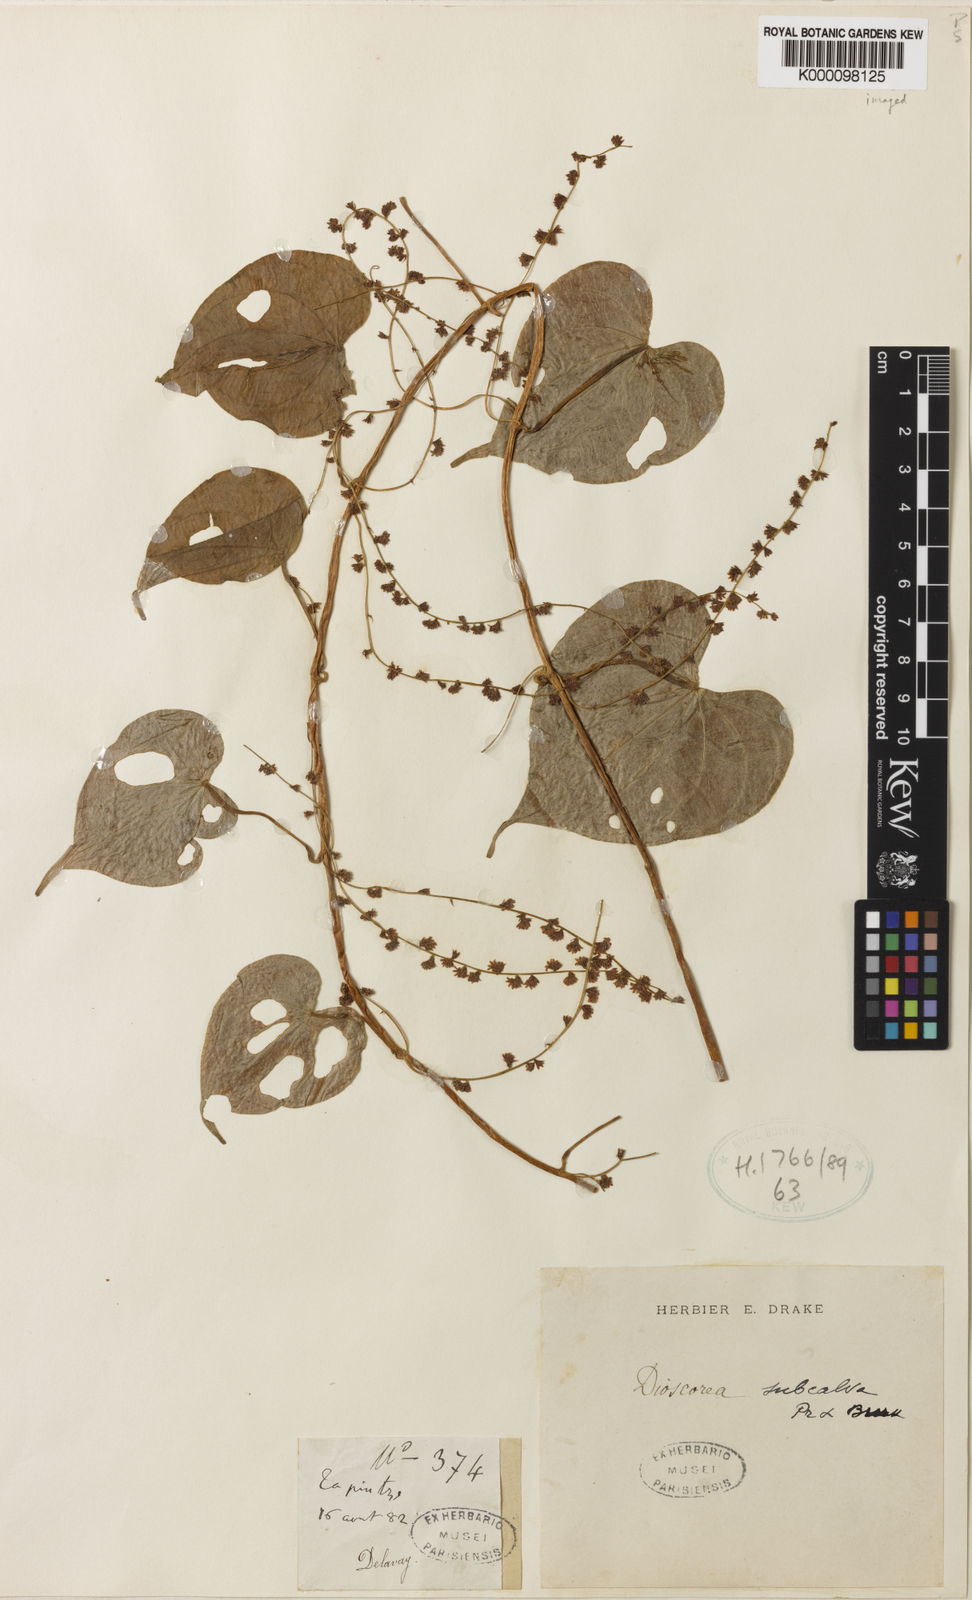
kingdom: Plantae
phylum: Tracheophyta
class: Liliopsida
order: Dioscoreales
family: Dioscoreaceae
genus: Dioscorea
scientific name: Dioscorea subcalva
